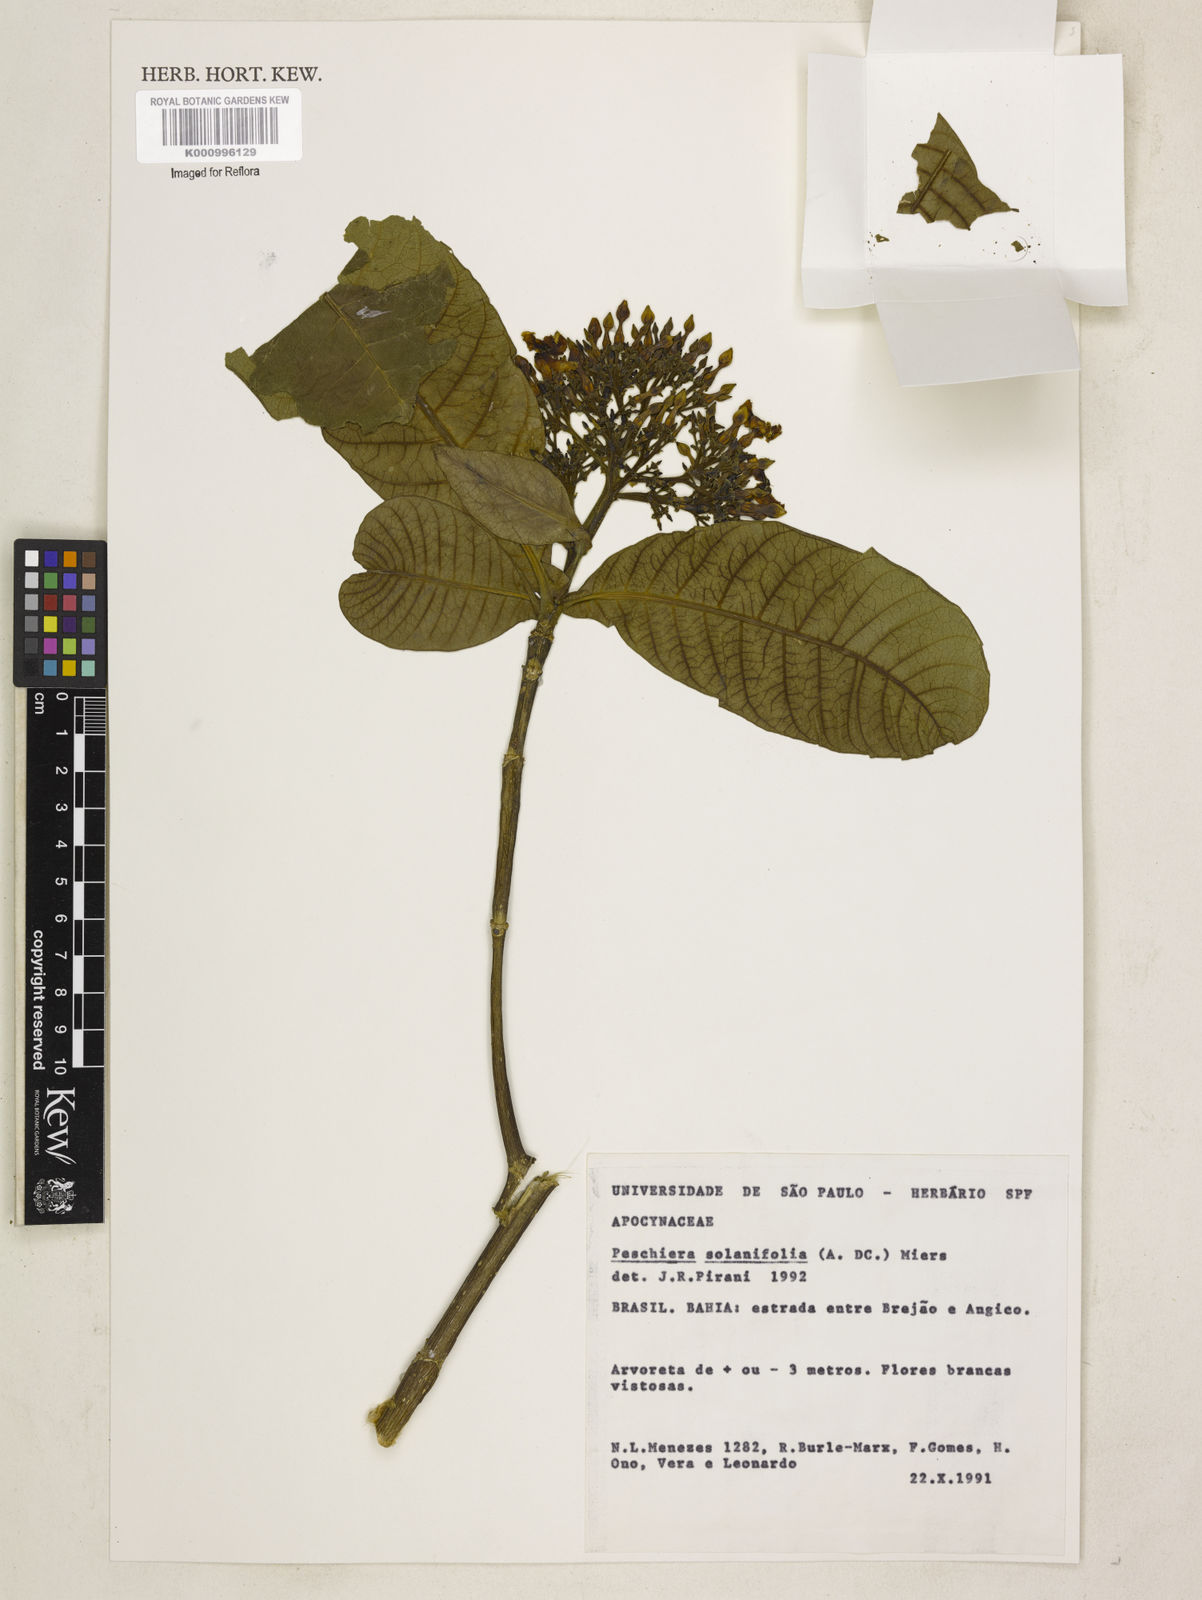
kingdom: Plantae
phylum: Tracheophyta
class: Magnoliopsida
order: Gentianales
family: Apocynaceae
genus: Tabernaemontana
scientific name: Tabernaemontana solanifolia
